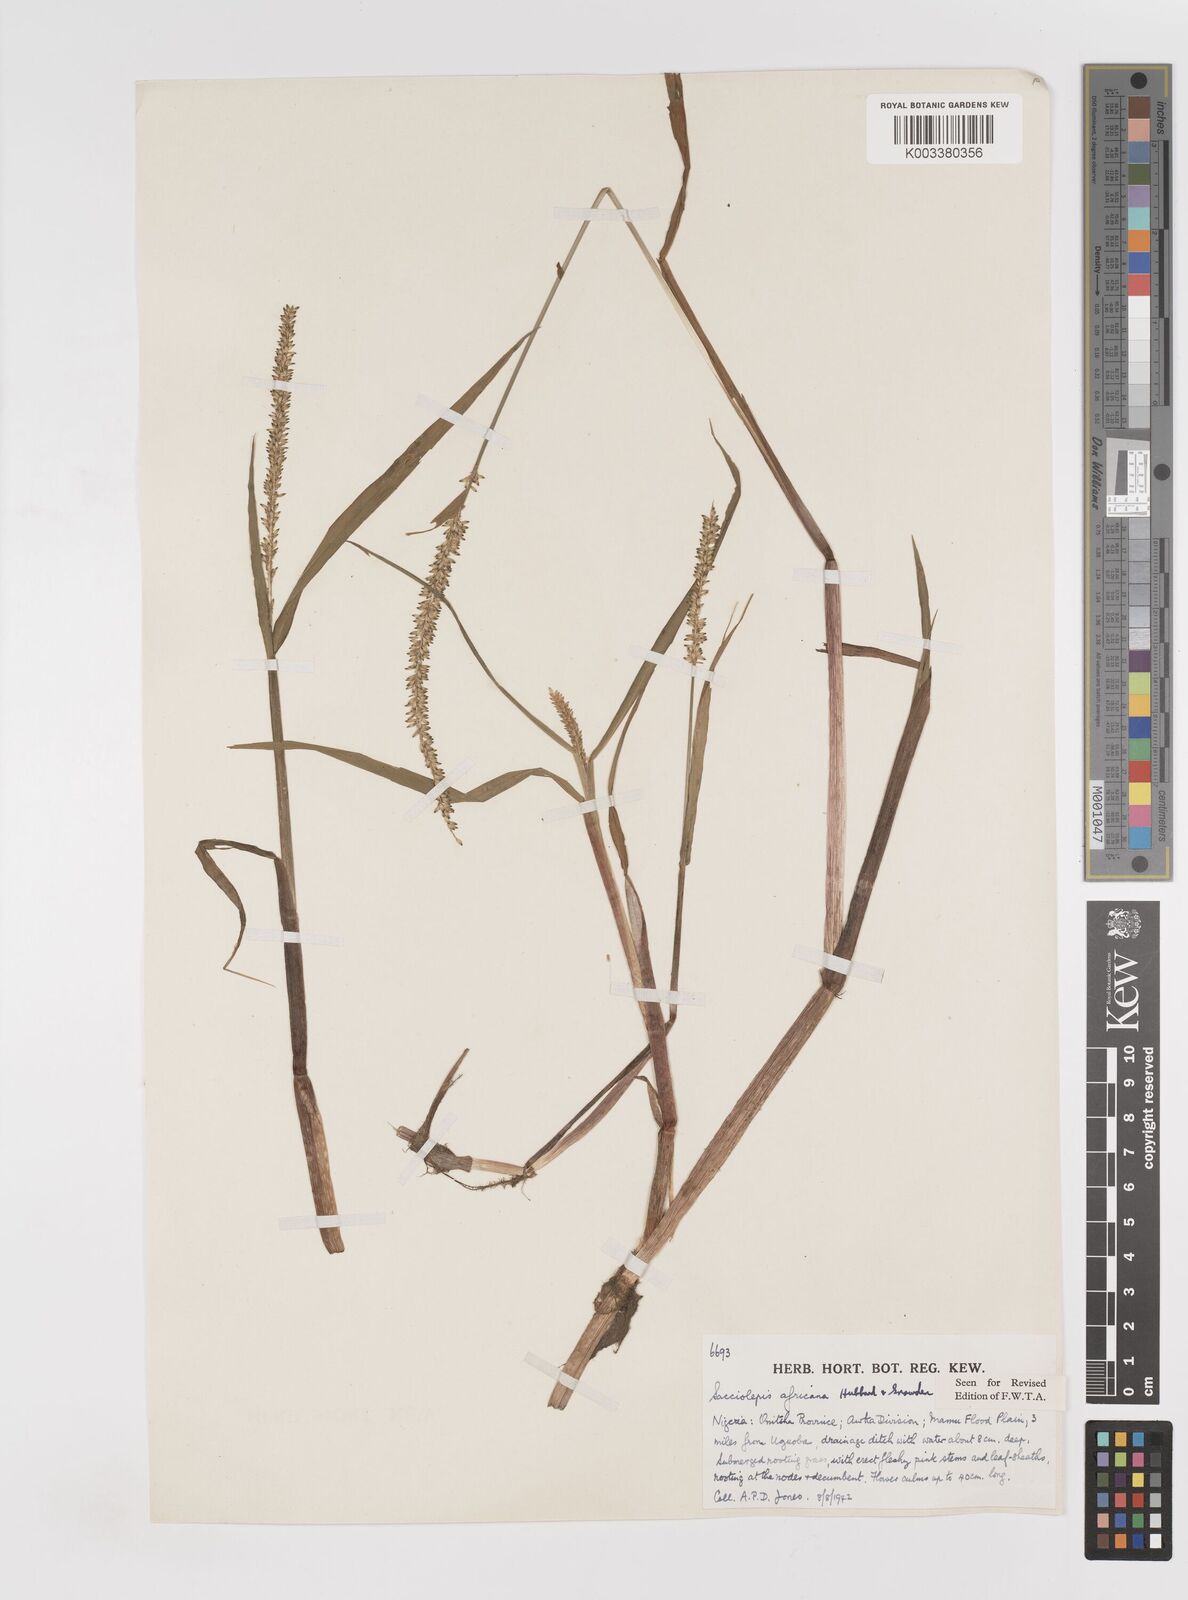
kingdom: Plantae
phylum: Tracheophyta
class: Liliopsida
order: Poales
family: Poaceae
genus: Sacciolepis
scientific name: Sacciolepis africana
